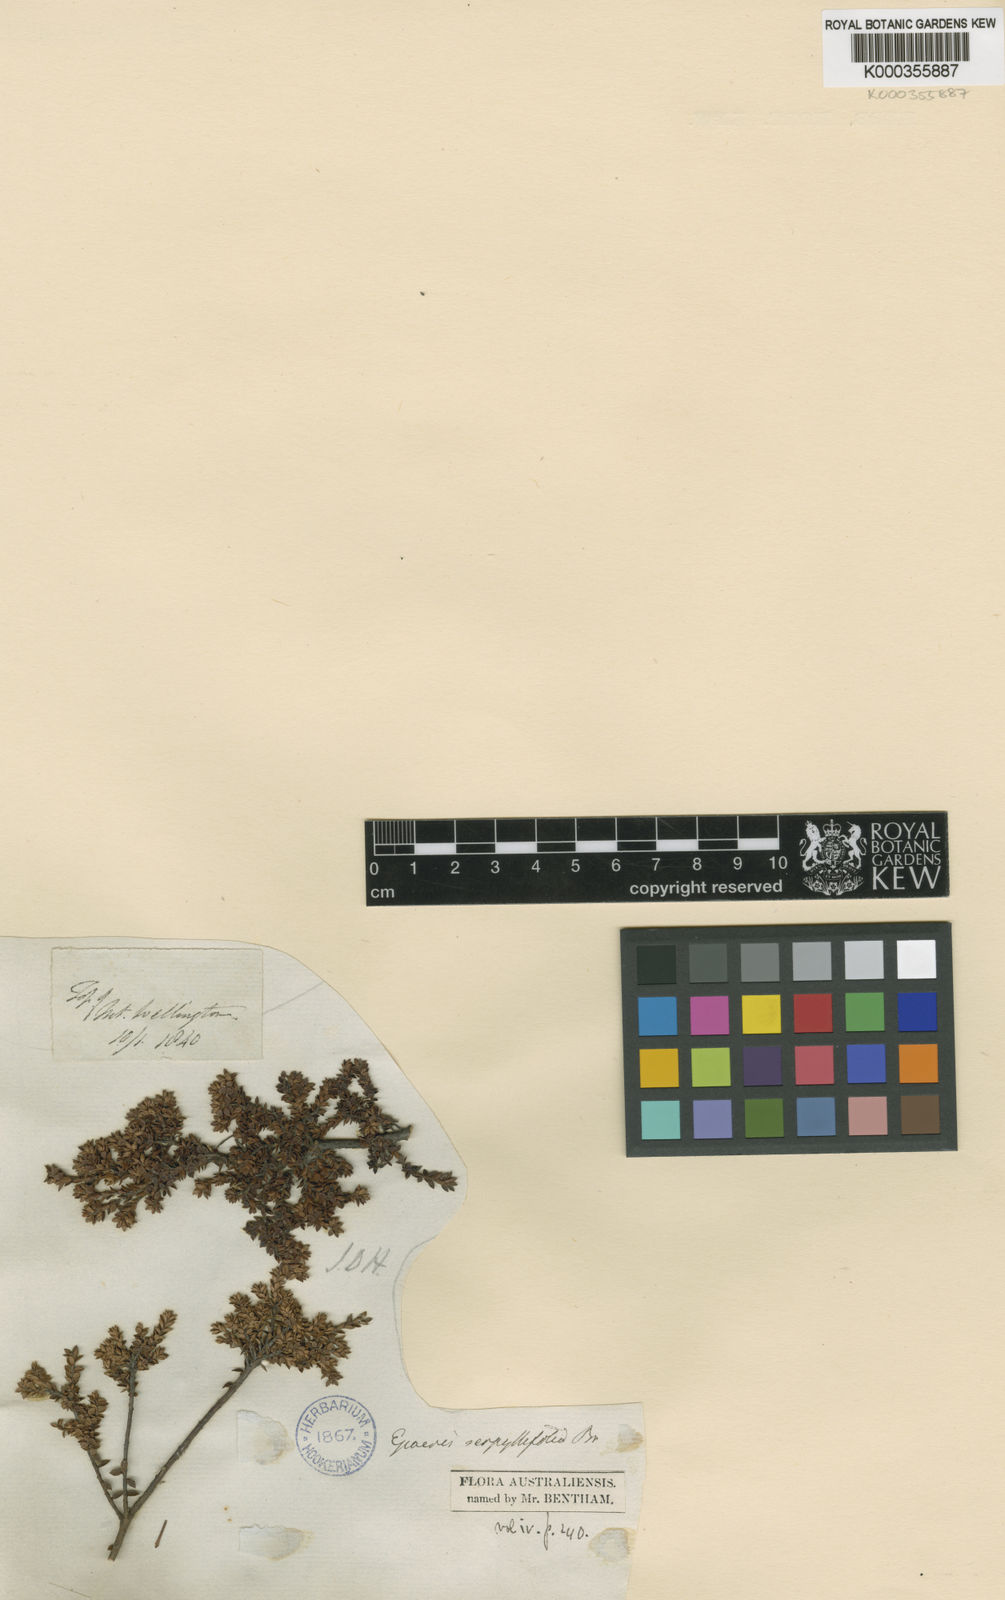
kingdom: Plantae
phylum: Tracheophyta
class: Magnoliopsida
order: Ericales
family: Ericaceae
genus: Epacris
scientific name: Epacris serpyllifolia
